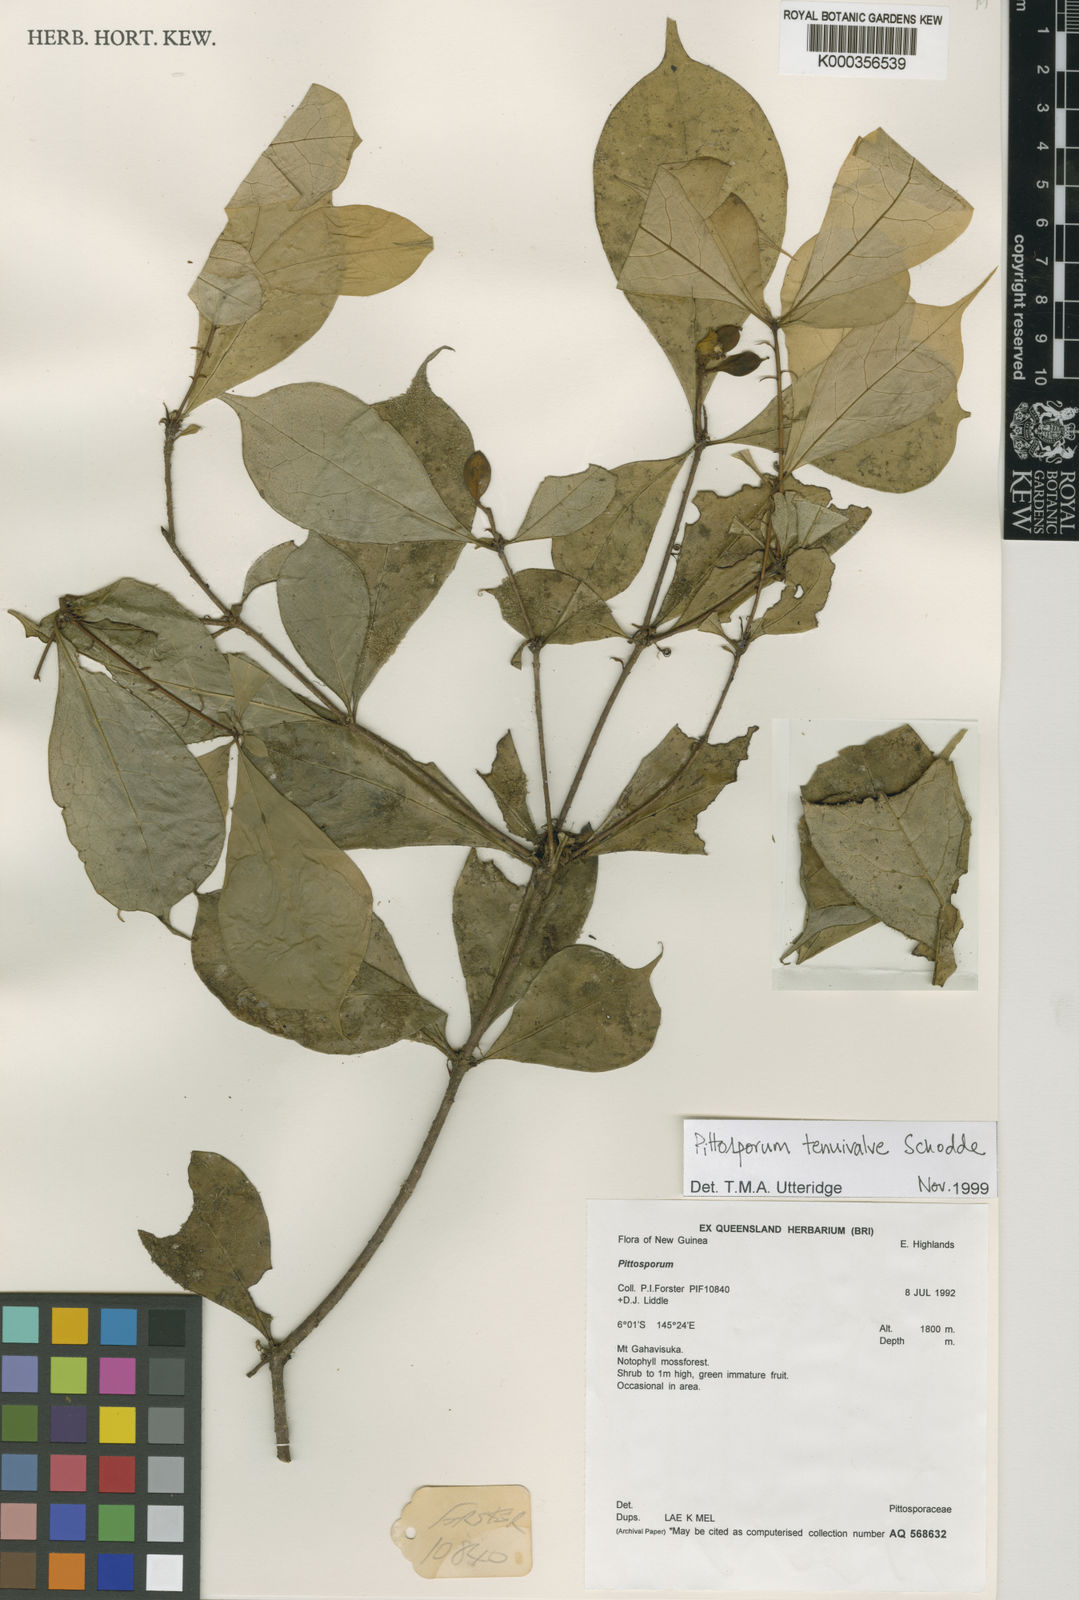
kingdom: Plantae
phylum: Tracheophyta
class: Magnoliopsida
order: Apiales
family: Pittosporaceae
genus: Pittosporum
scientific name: Pittosporum tenuivalve
